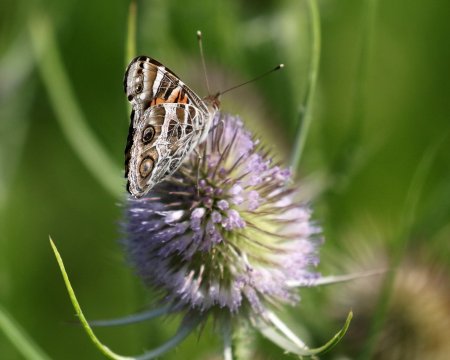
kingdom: Animalia
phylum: Arthropoda
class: Insecta
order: Lepidoptera
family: Nymphalidae
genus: Vanessa
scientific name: Vanessa virginiensis
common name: American Lady
